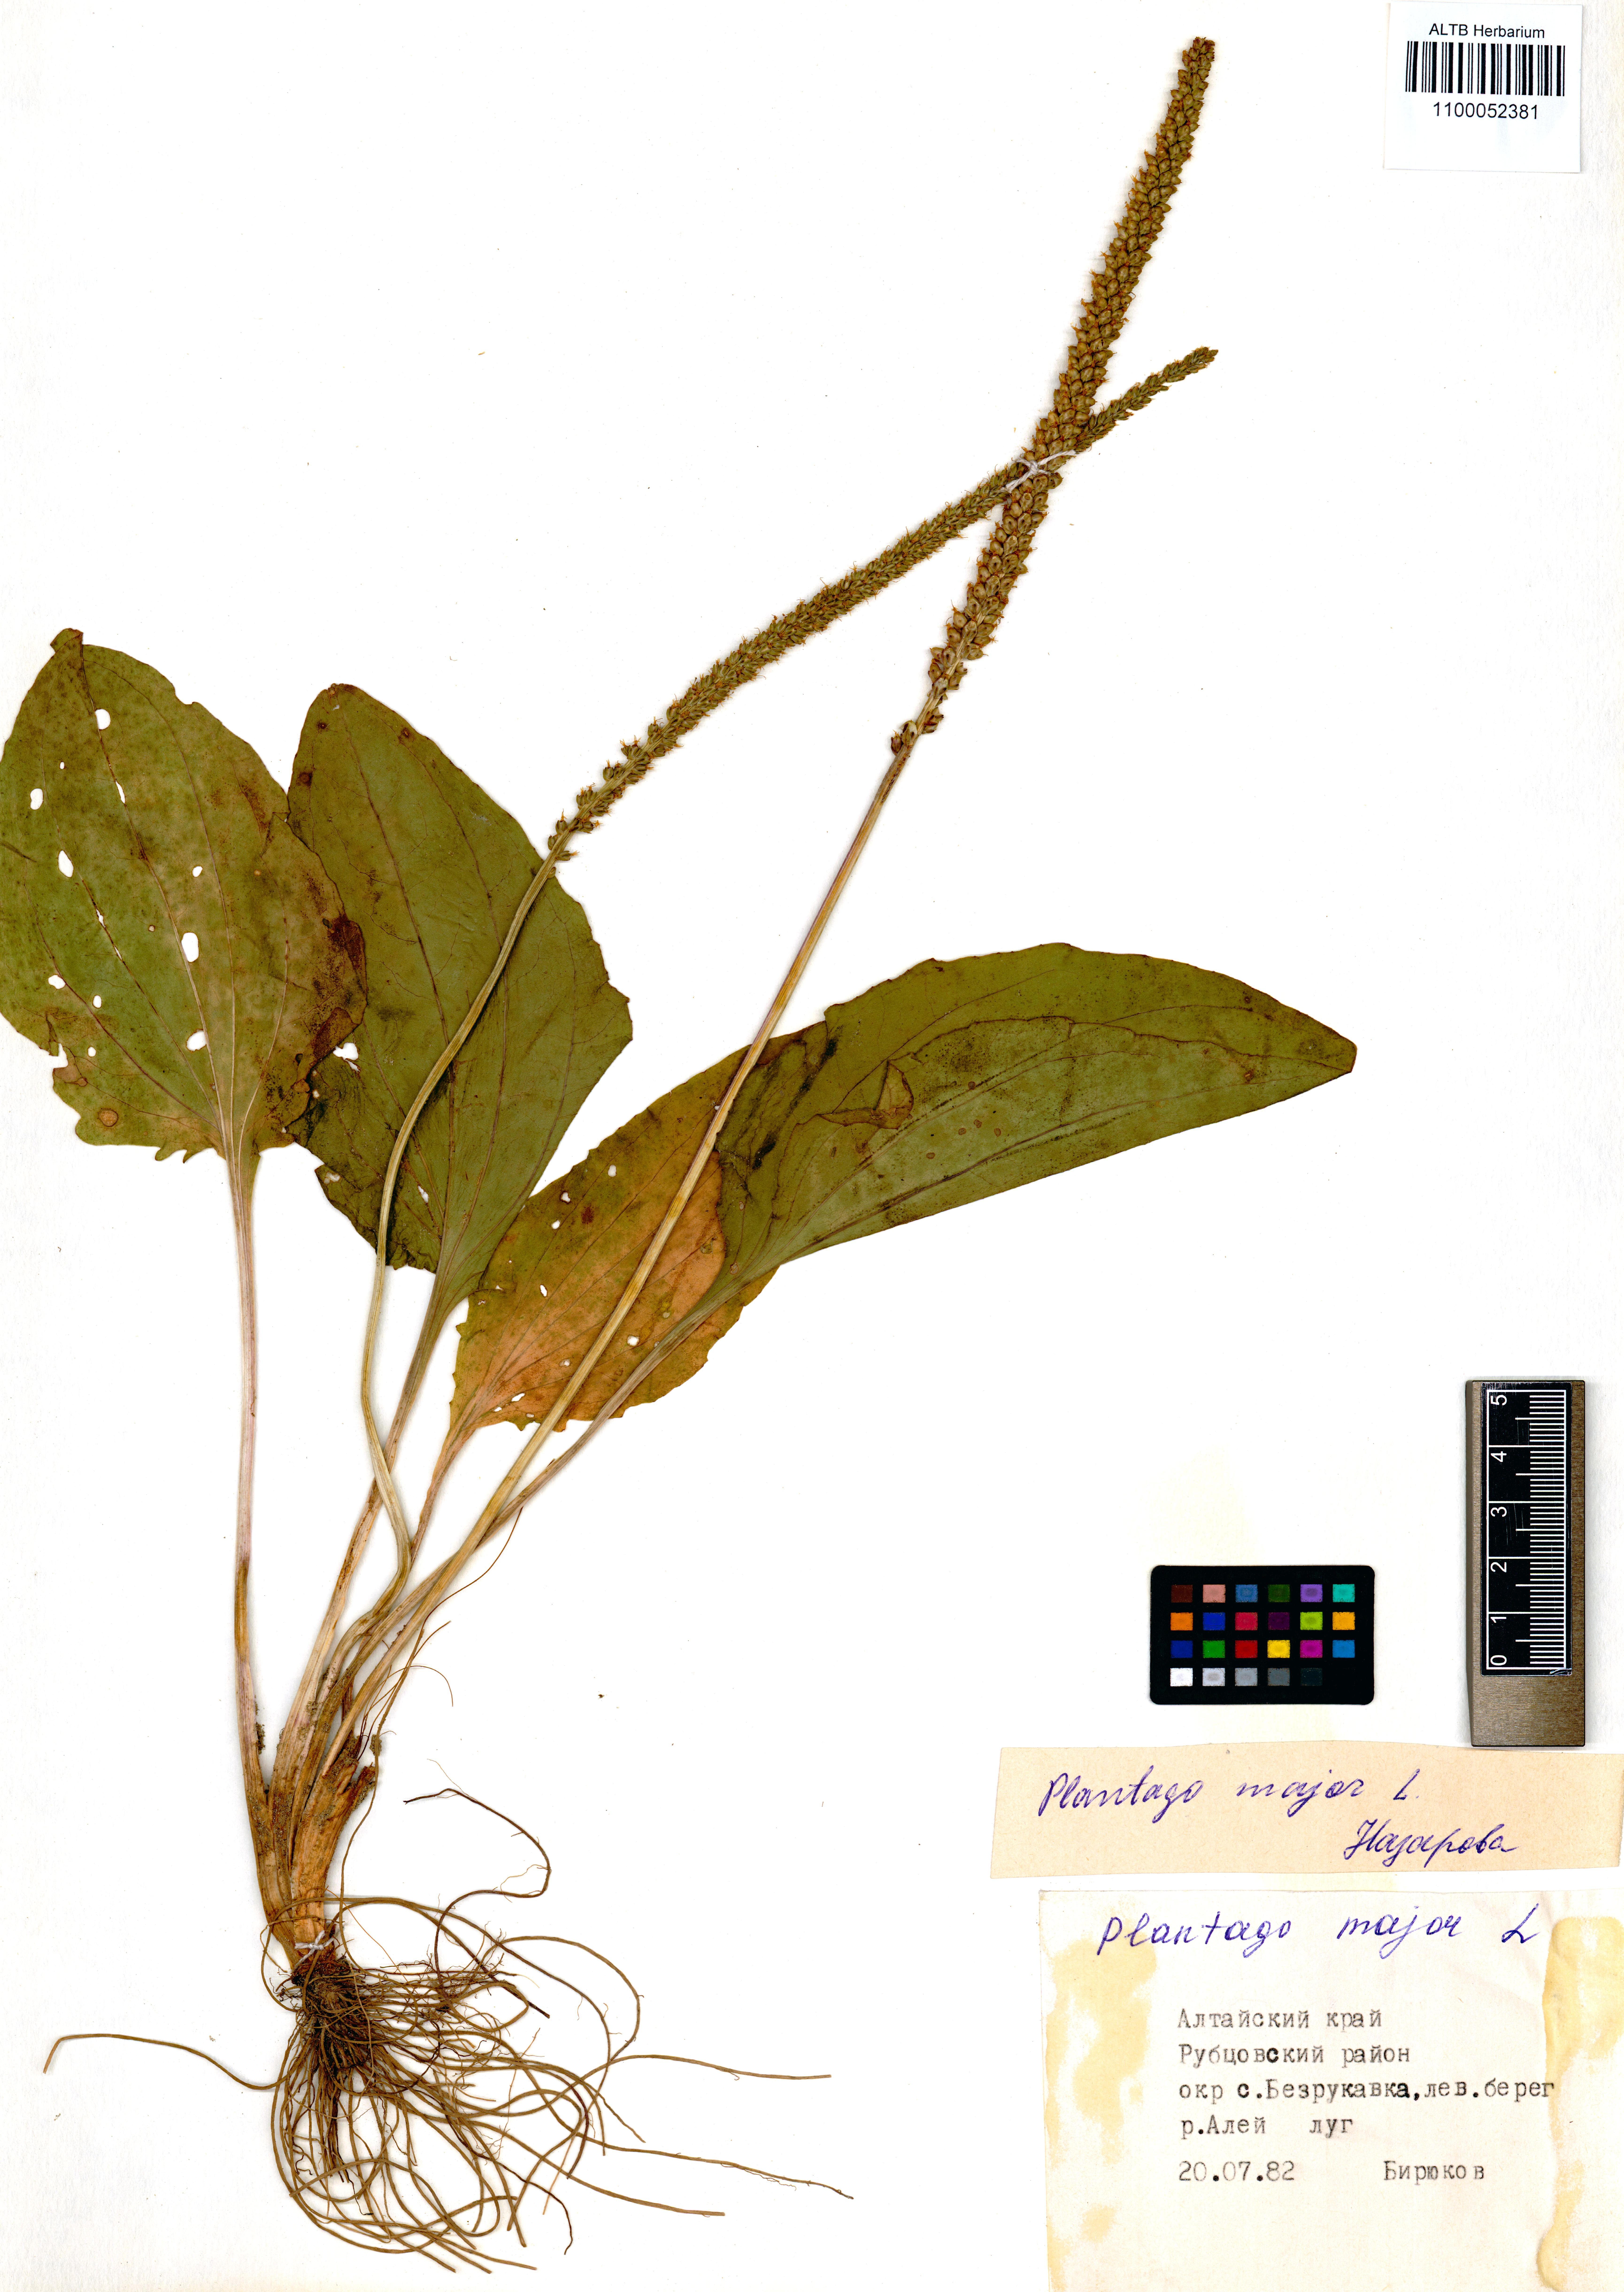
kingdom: Plantae
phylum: Tracheophyta
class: Magnoliopsida
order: Lamiales
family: Plantaginaceae
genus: Plantago
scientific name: Plantago major
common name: Common plantain
